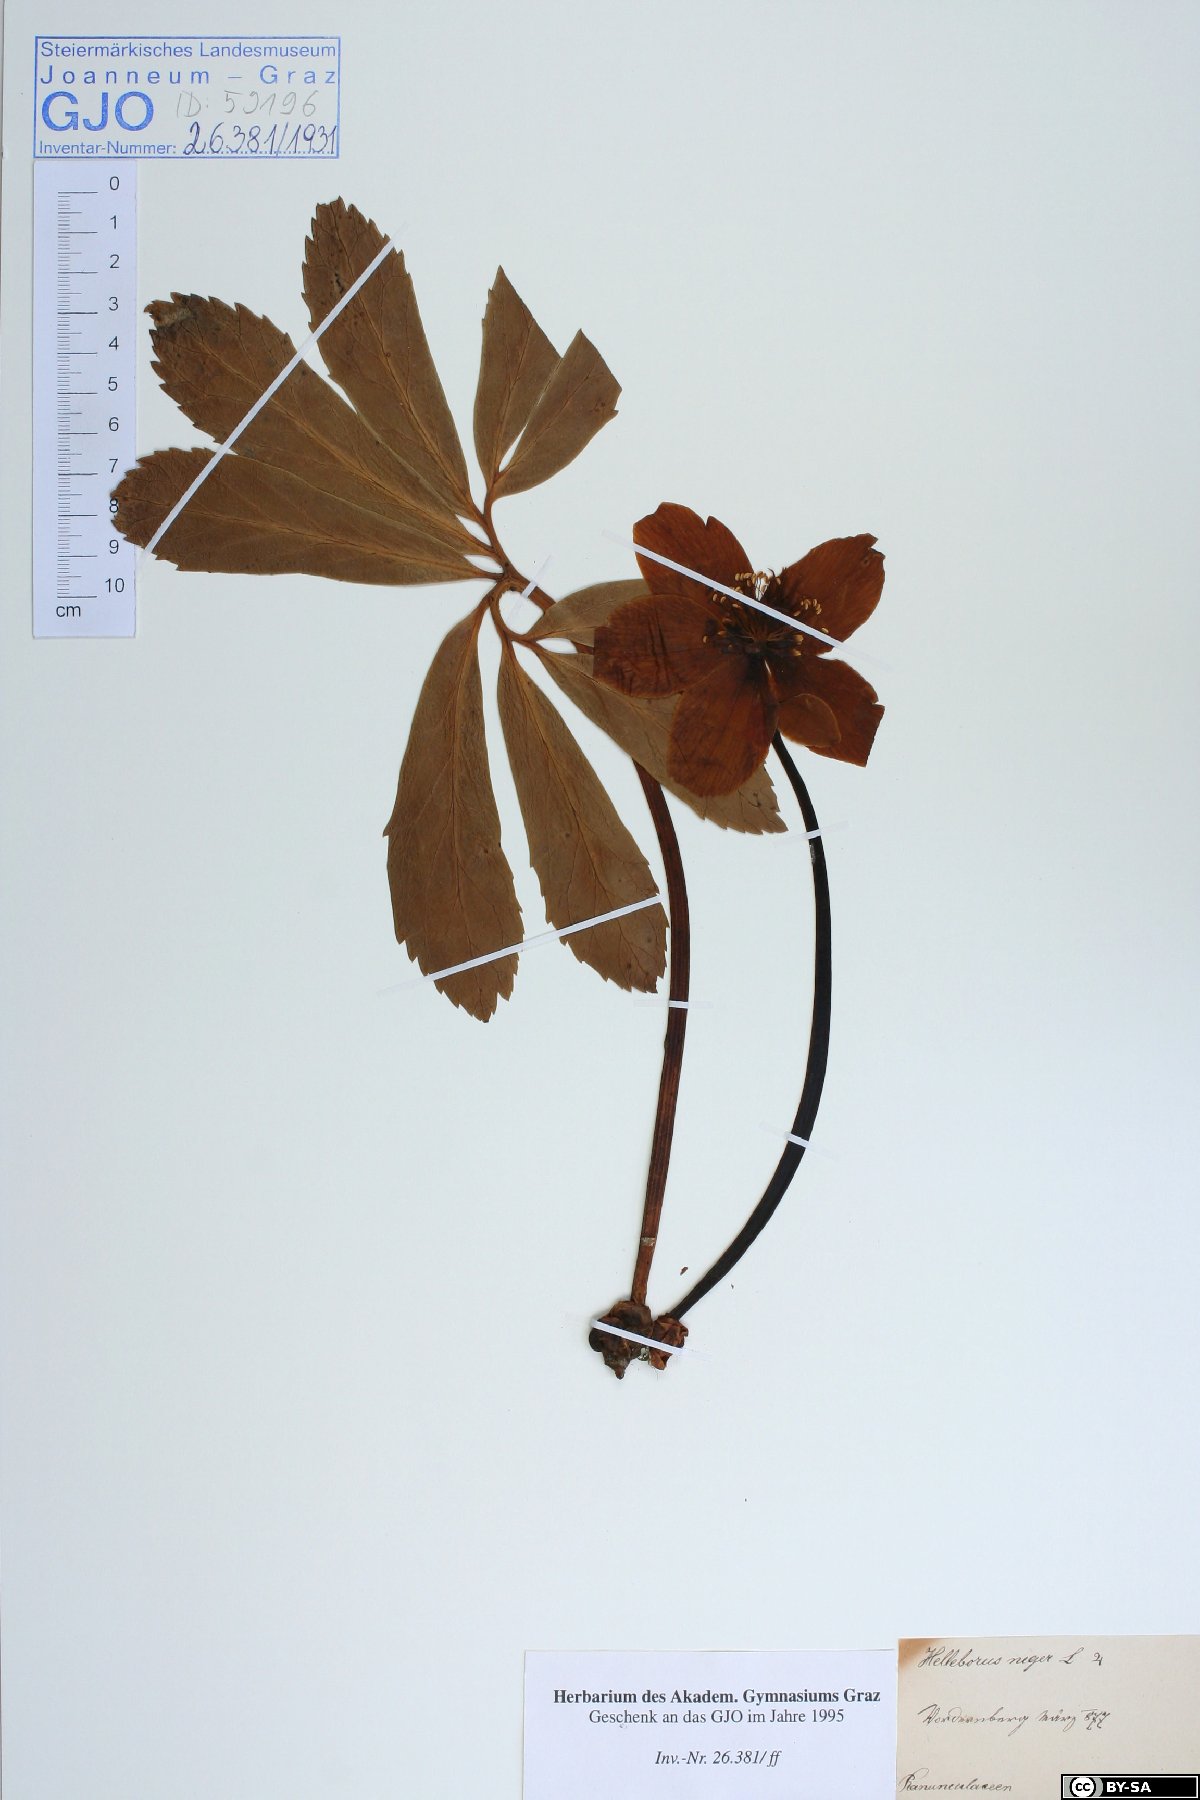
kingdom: Plantae
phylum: Tracheophyta
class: Magnoliopsida
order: Ranunculales
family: Ranunculaceae
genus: Helleborus
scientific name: Helleborus niger
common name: Black hellebore
